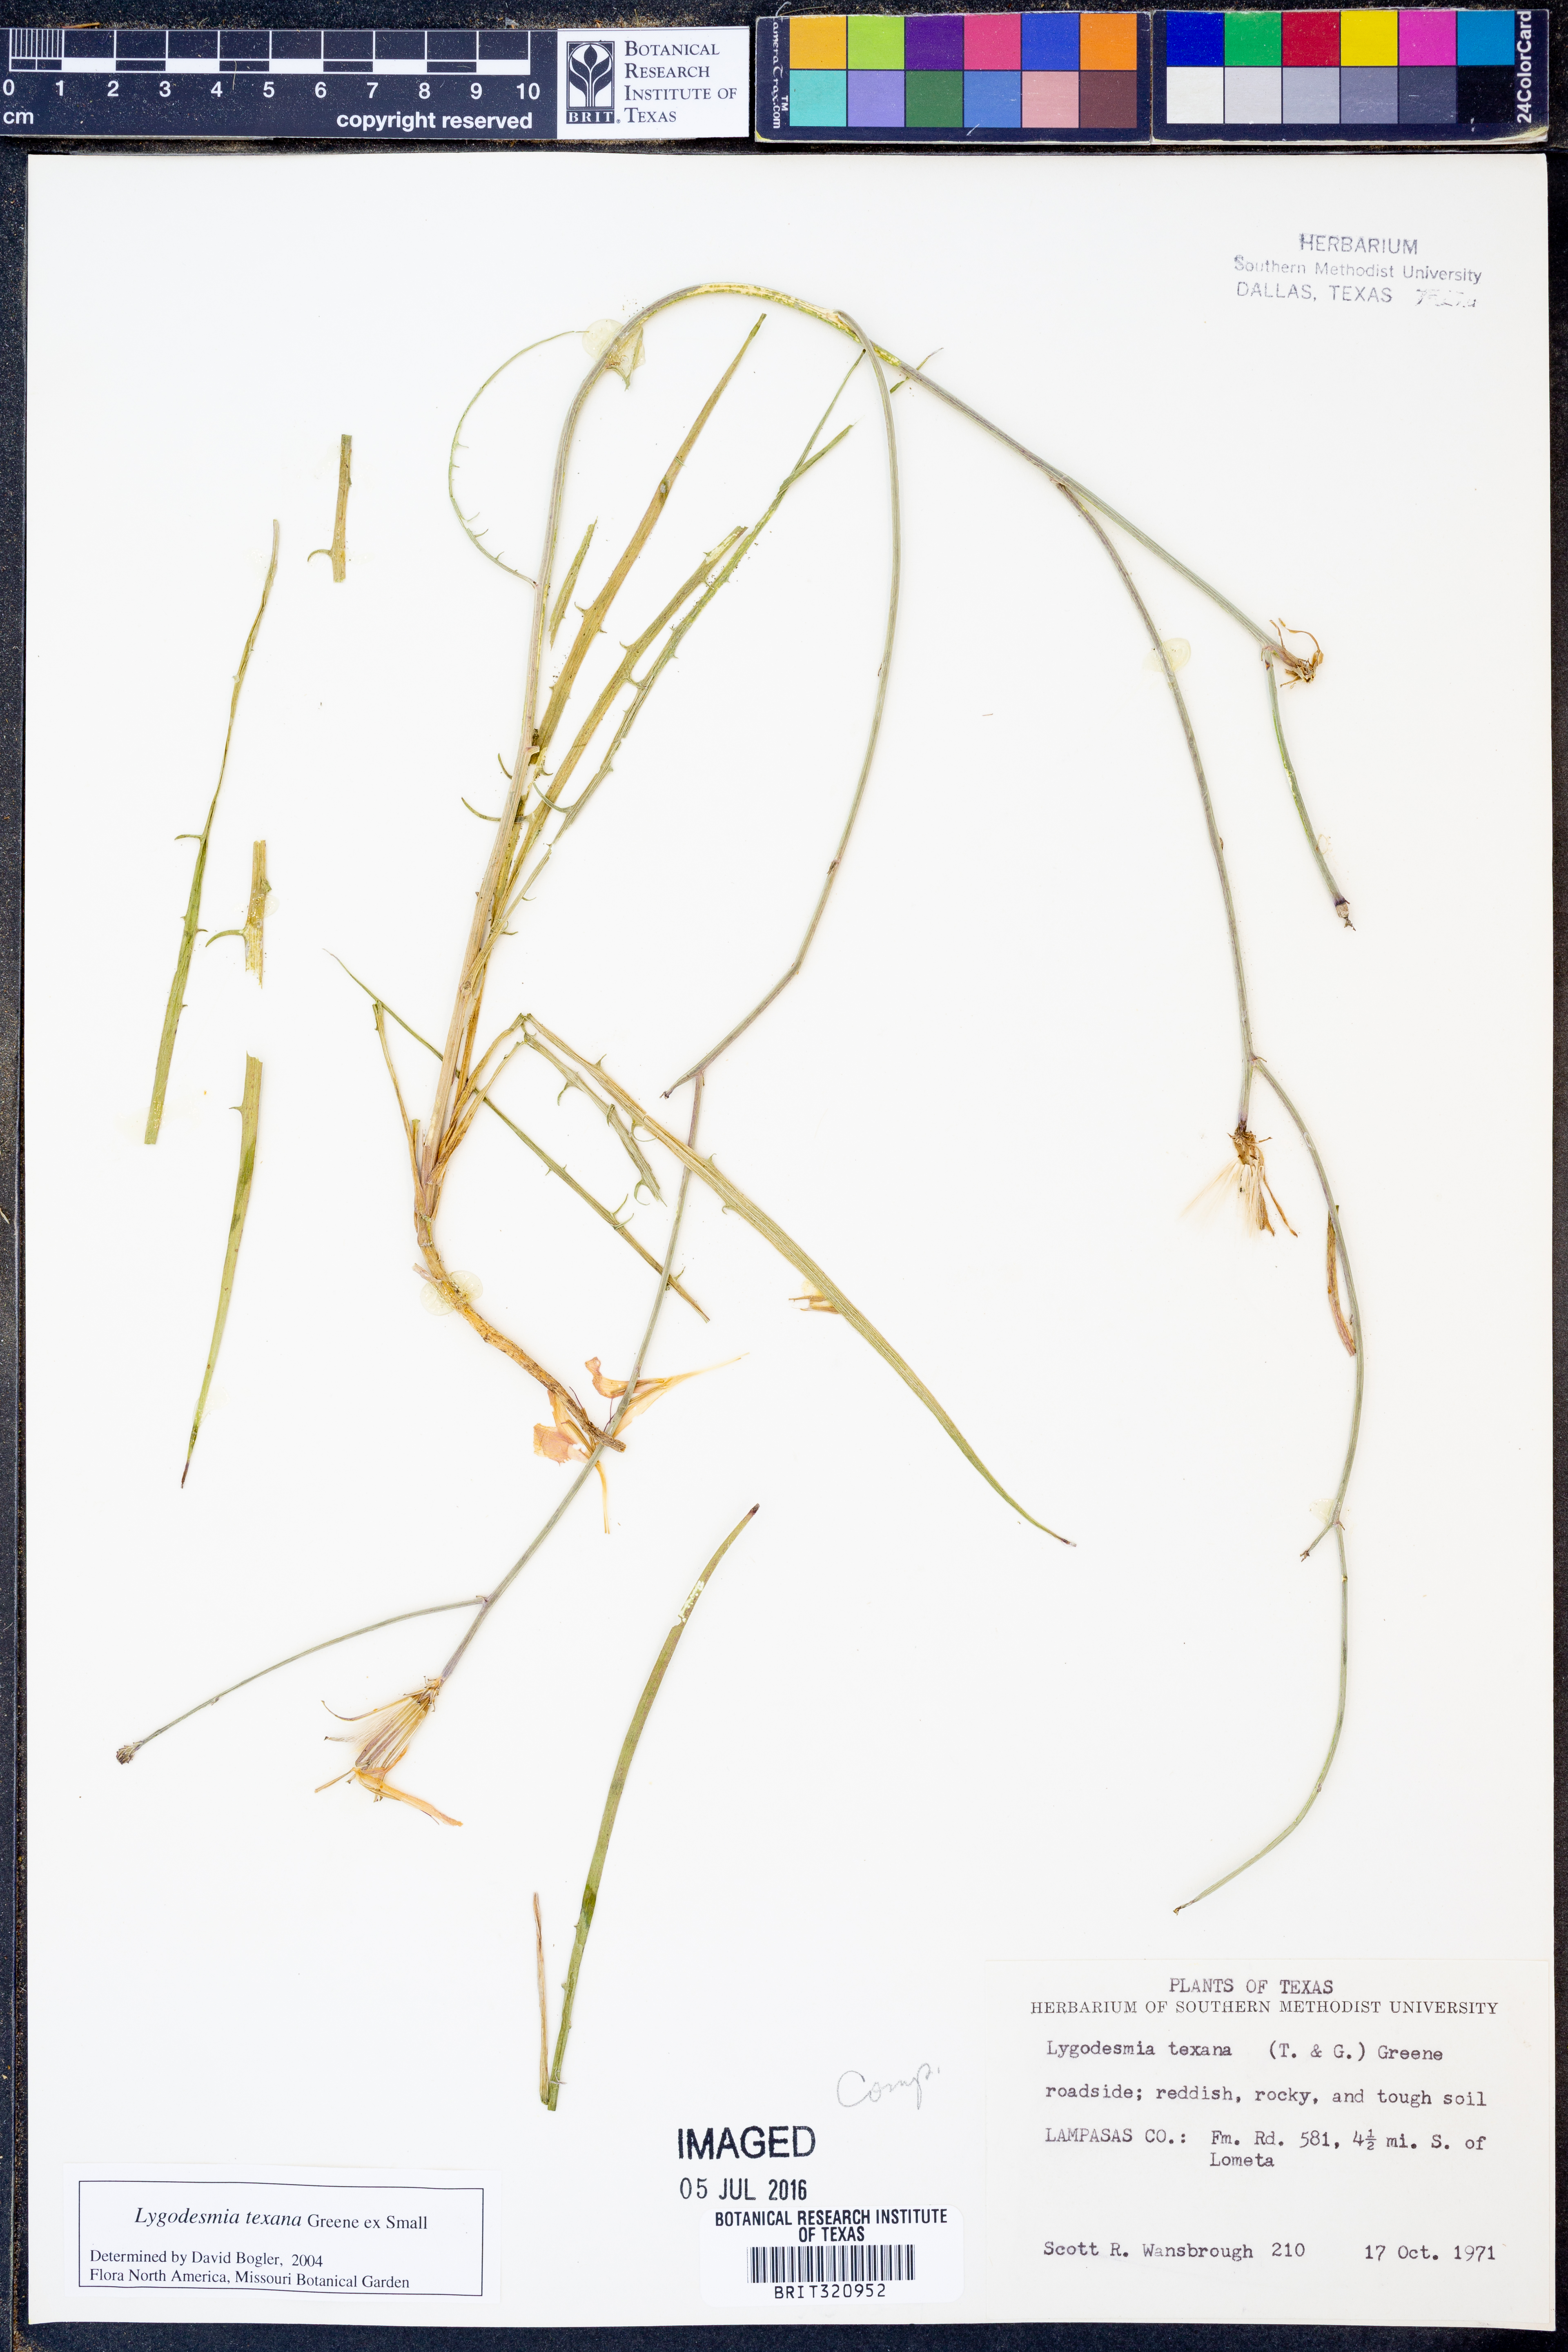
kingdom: Plantae
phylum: Tracheophyta
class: Magnoliopsida
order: Asterales
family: Asteraceae
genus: Lygodesmia
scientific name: Lygodesmia texana
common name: Texas skeleton-plant
